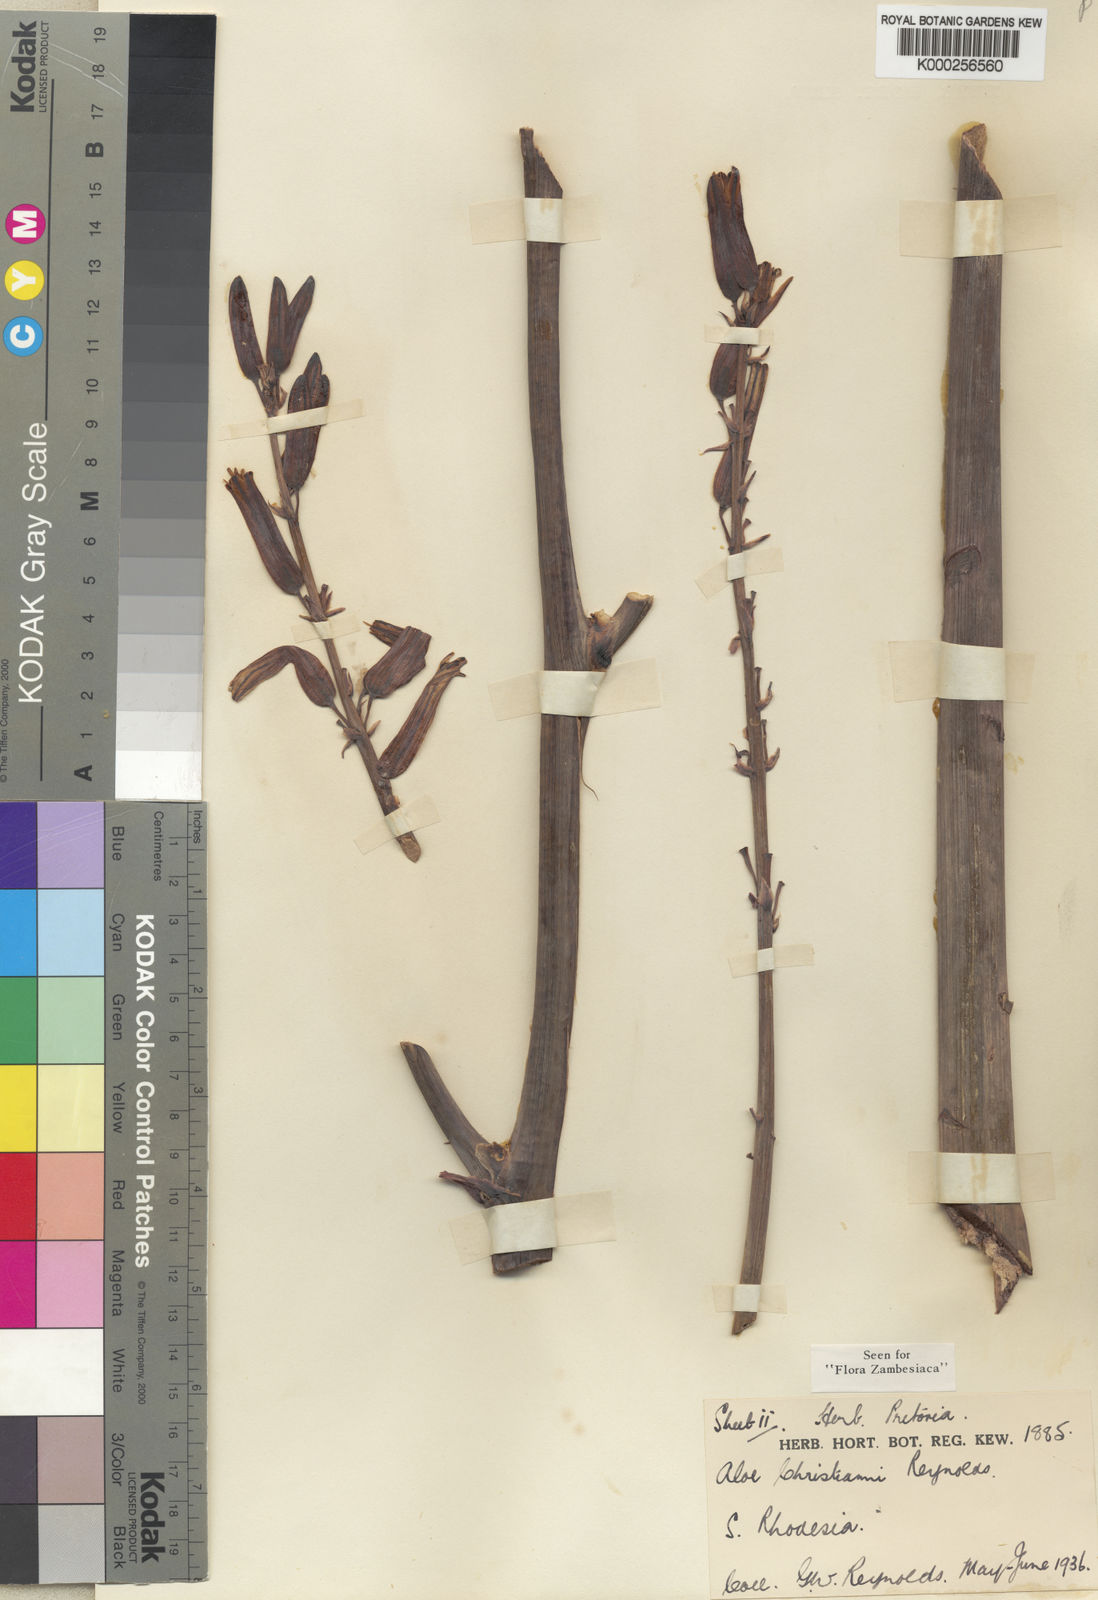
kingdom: Plantae
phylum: Tracheophyta
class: Liliopsida
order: Asparagales
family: Asphodelaceae
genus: Aloe
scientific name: Aloe christianii
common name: Basil christian's aloe
